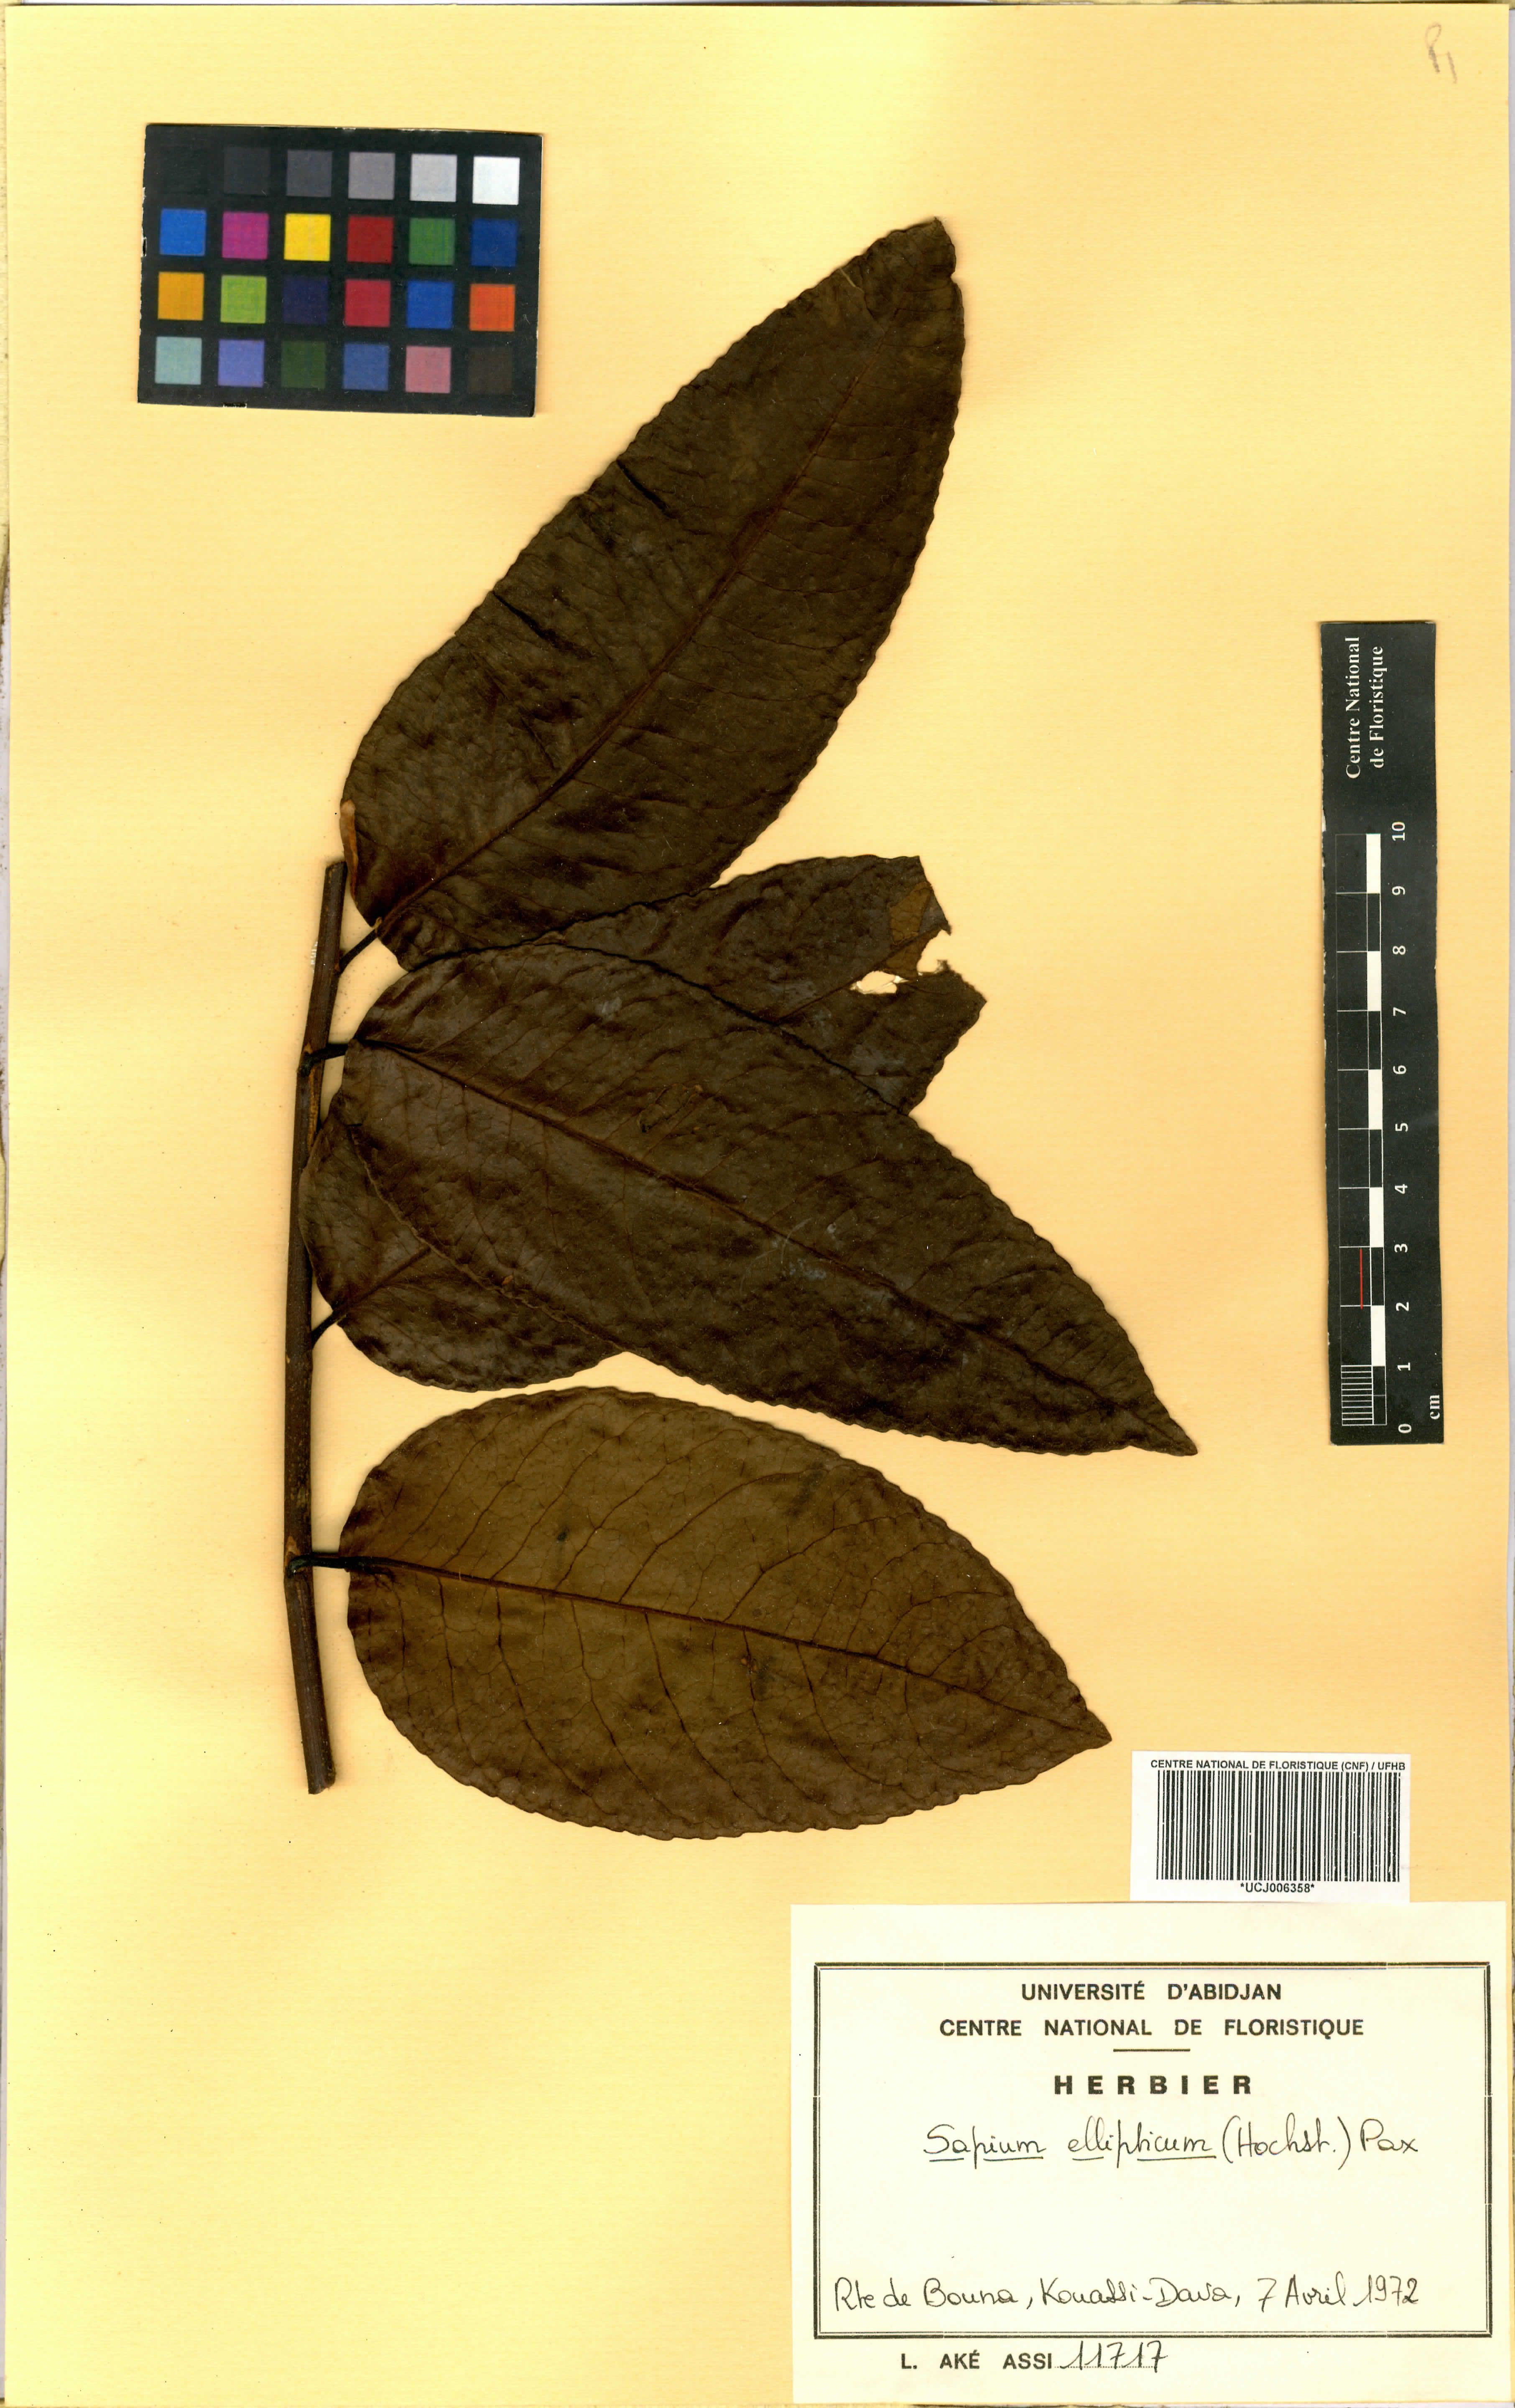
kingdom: Plantae
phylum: Tracheophyta
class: Magnoliopsida
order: Malpighiales
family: Euphorbiaceae
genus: Shirakiopsis
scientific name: Shirakiopsis elliptica
